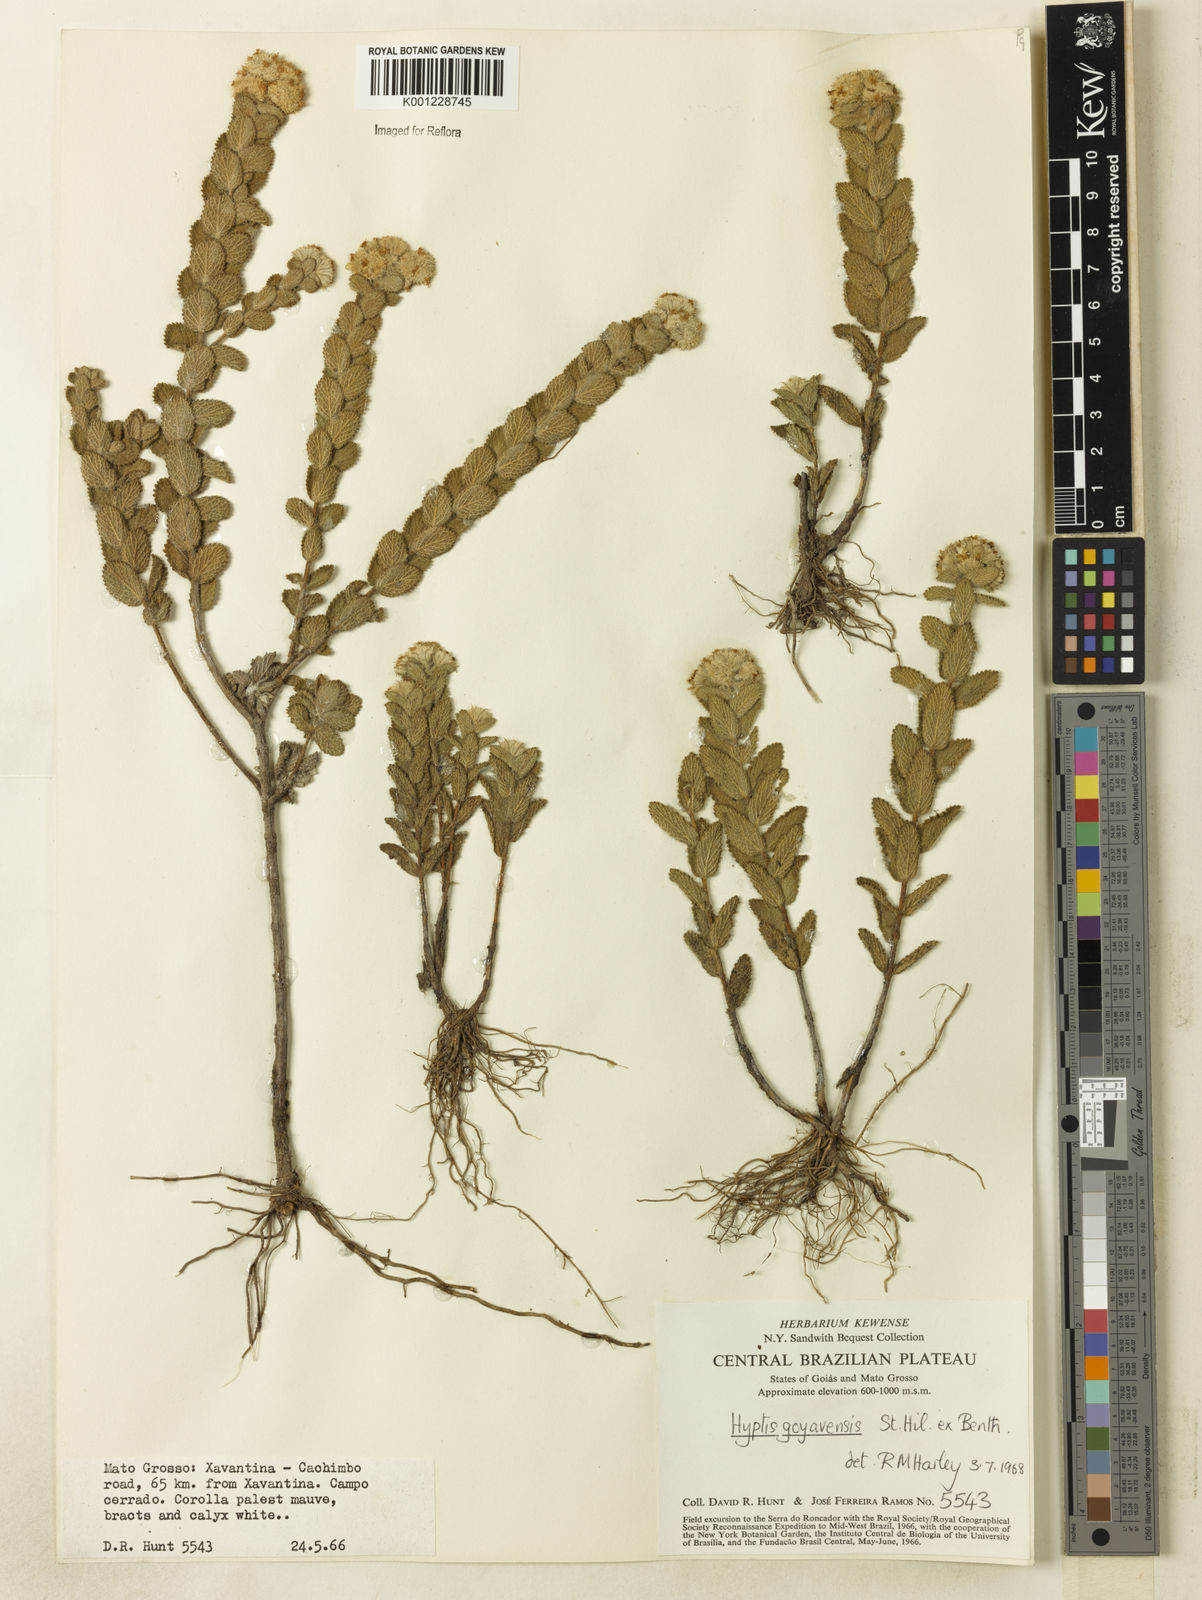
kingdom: Plantae
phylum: Tracheophyta
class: Magnoliopsida
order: Lamiales
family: Lamiaceae
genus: Hyptis
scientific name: Hyptis crenata
